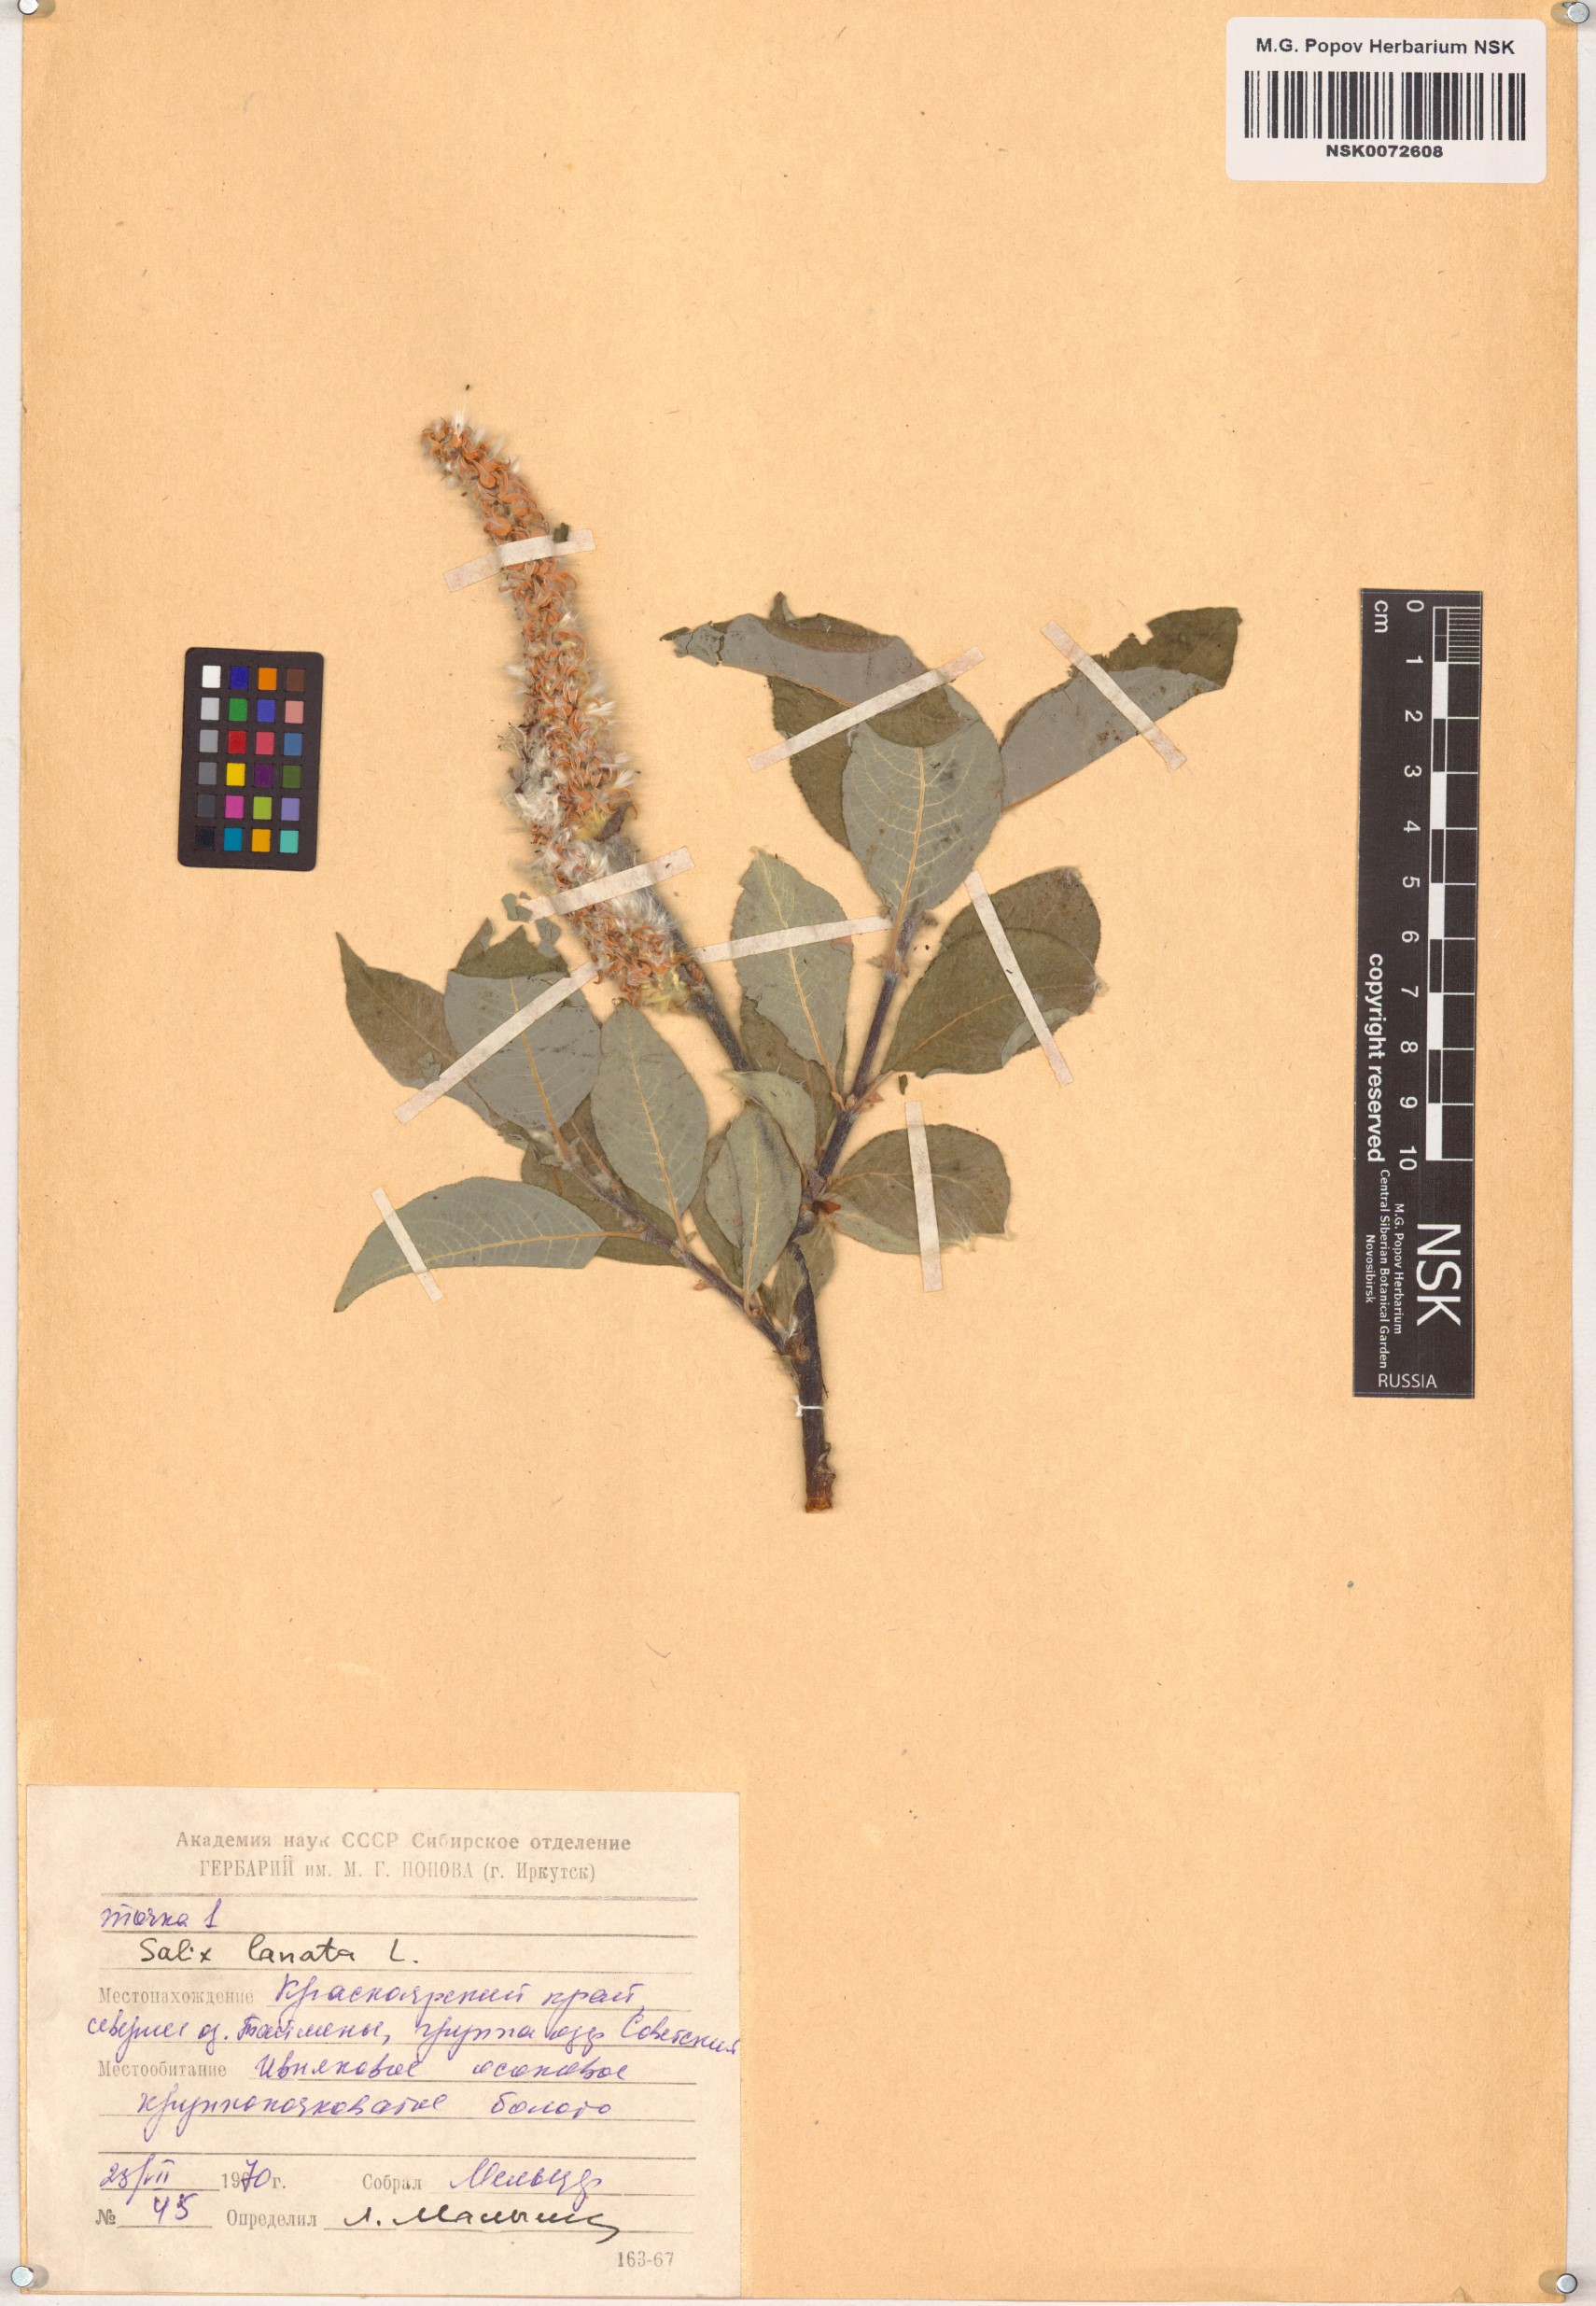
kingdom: Plantae
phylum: Tracheophyta
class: Magnoliopsida
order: Malpighiales
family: Salicaceae
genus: Salix
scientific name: Salix lanata
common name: Woolly willow
